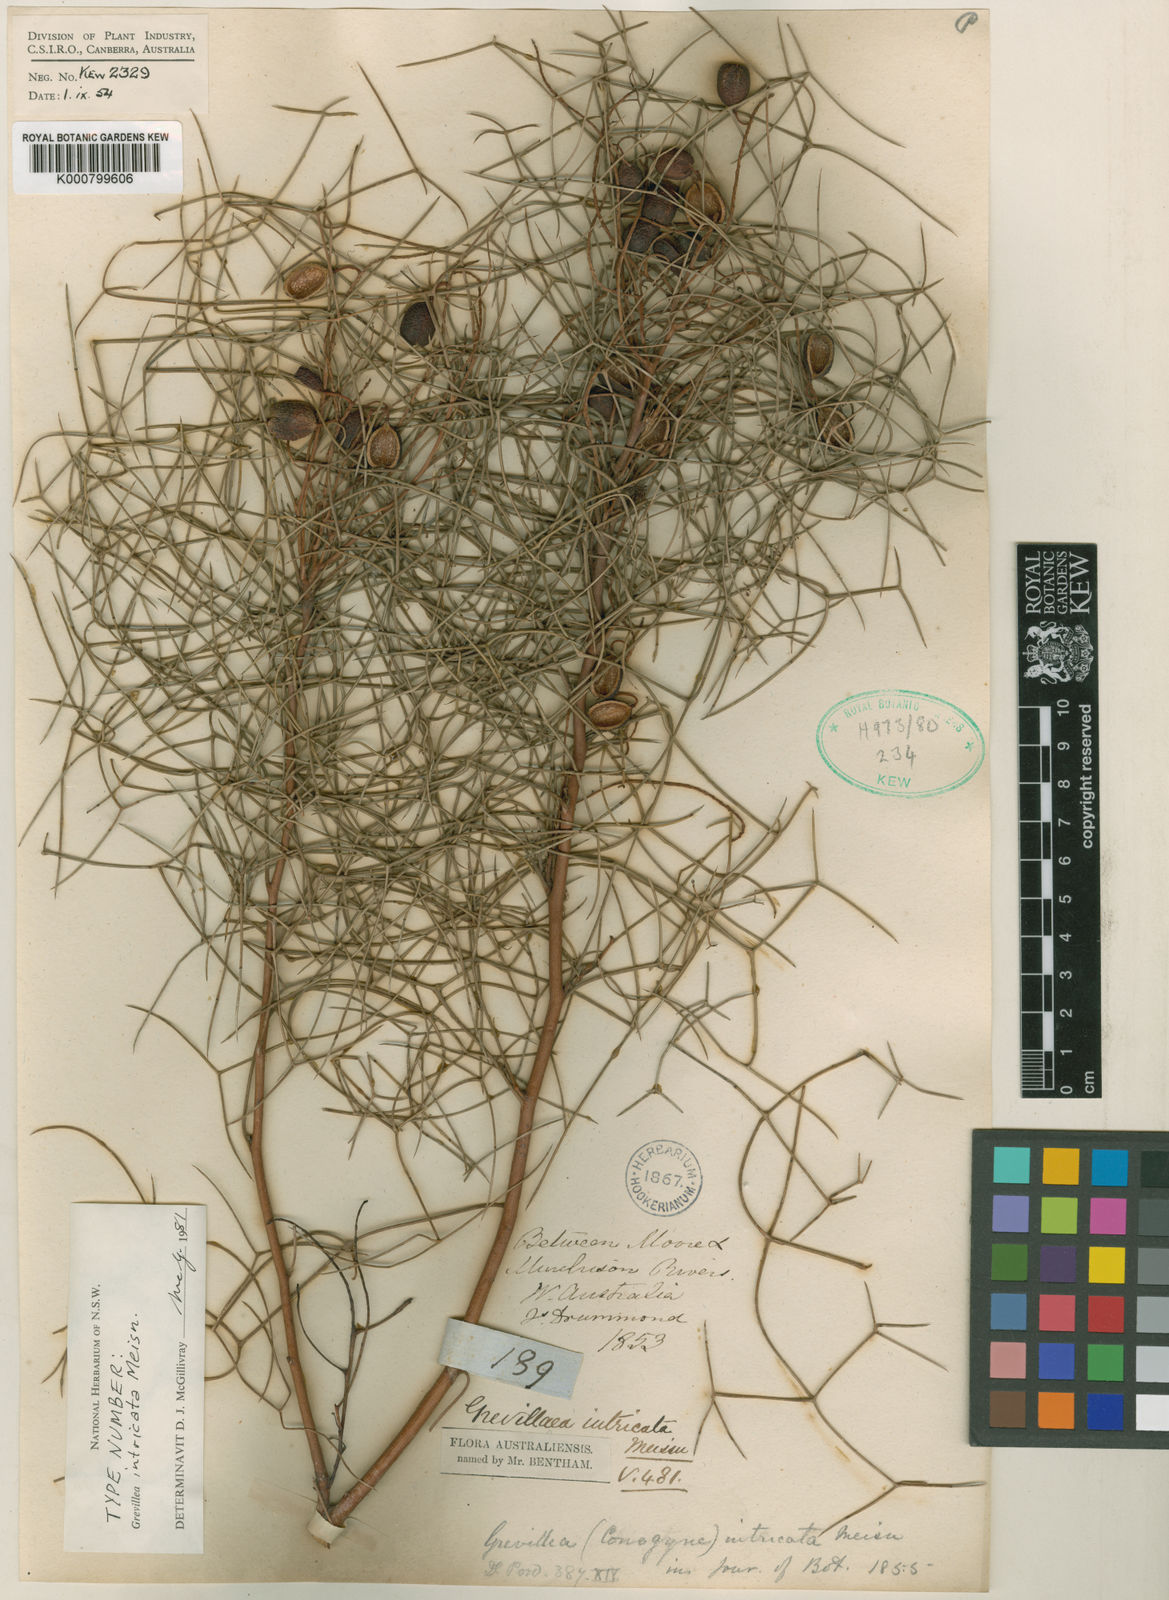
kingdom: Plantae
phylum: Tracheophyta
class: Magnoliopsida
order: Proteales
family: Proteaceae
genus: Grevillea
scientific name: Grevillea intricata
